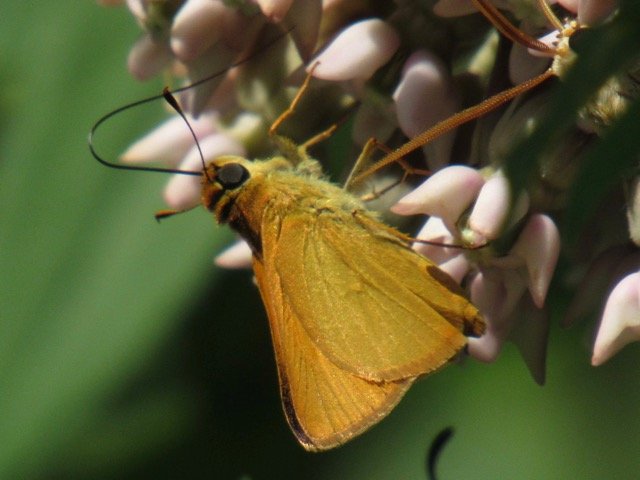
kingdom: Animalia
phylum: Arthropoda
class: Insecta
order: Lepidoptera
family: Hesperiidae
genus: Atrytone
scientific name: Atrytone delaware
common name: Delaware Skipper
